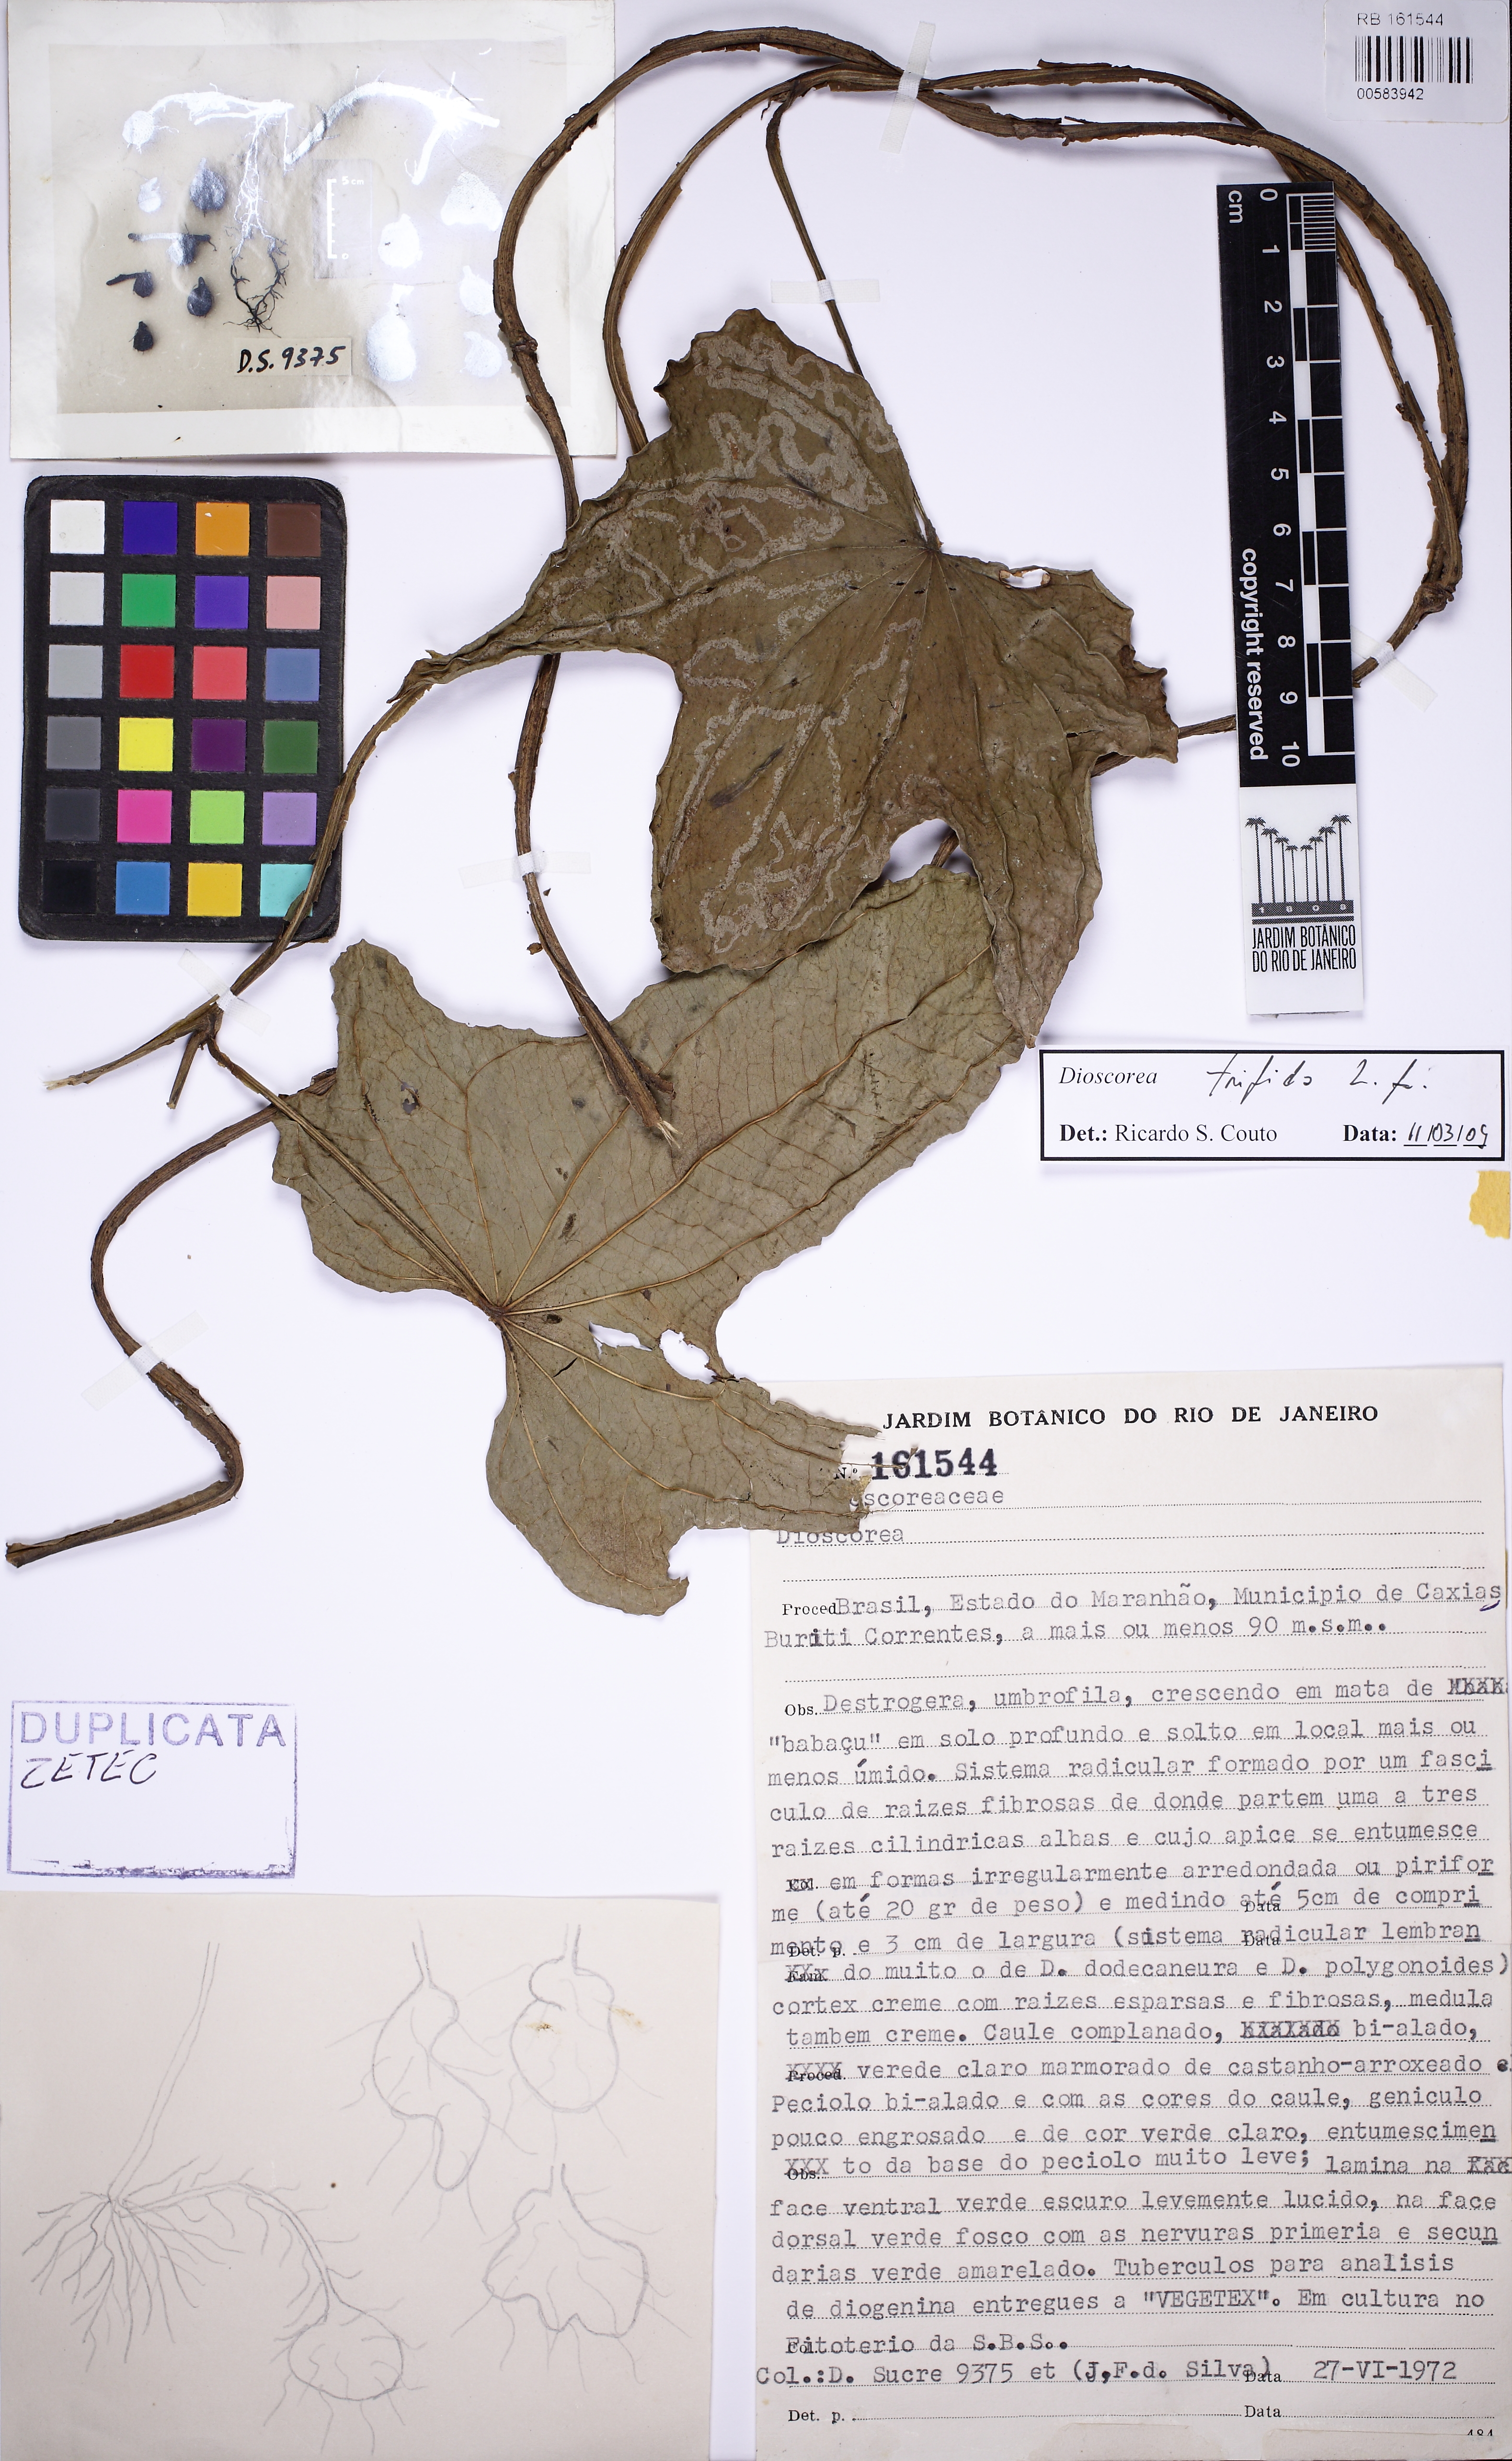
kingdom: Plantae
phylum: Tracheophyta
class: Liliopsida
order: Dioscoreales
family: Dioscoreaceae
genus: Dioscorea
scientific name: Dioscorea trifida
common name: Cush-cush
